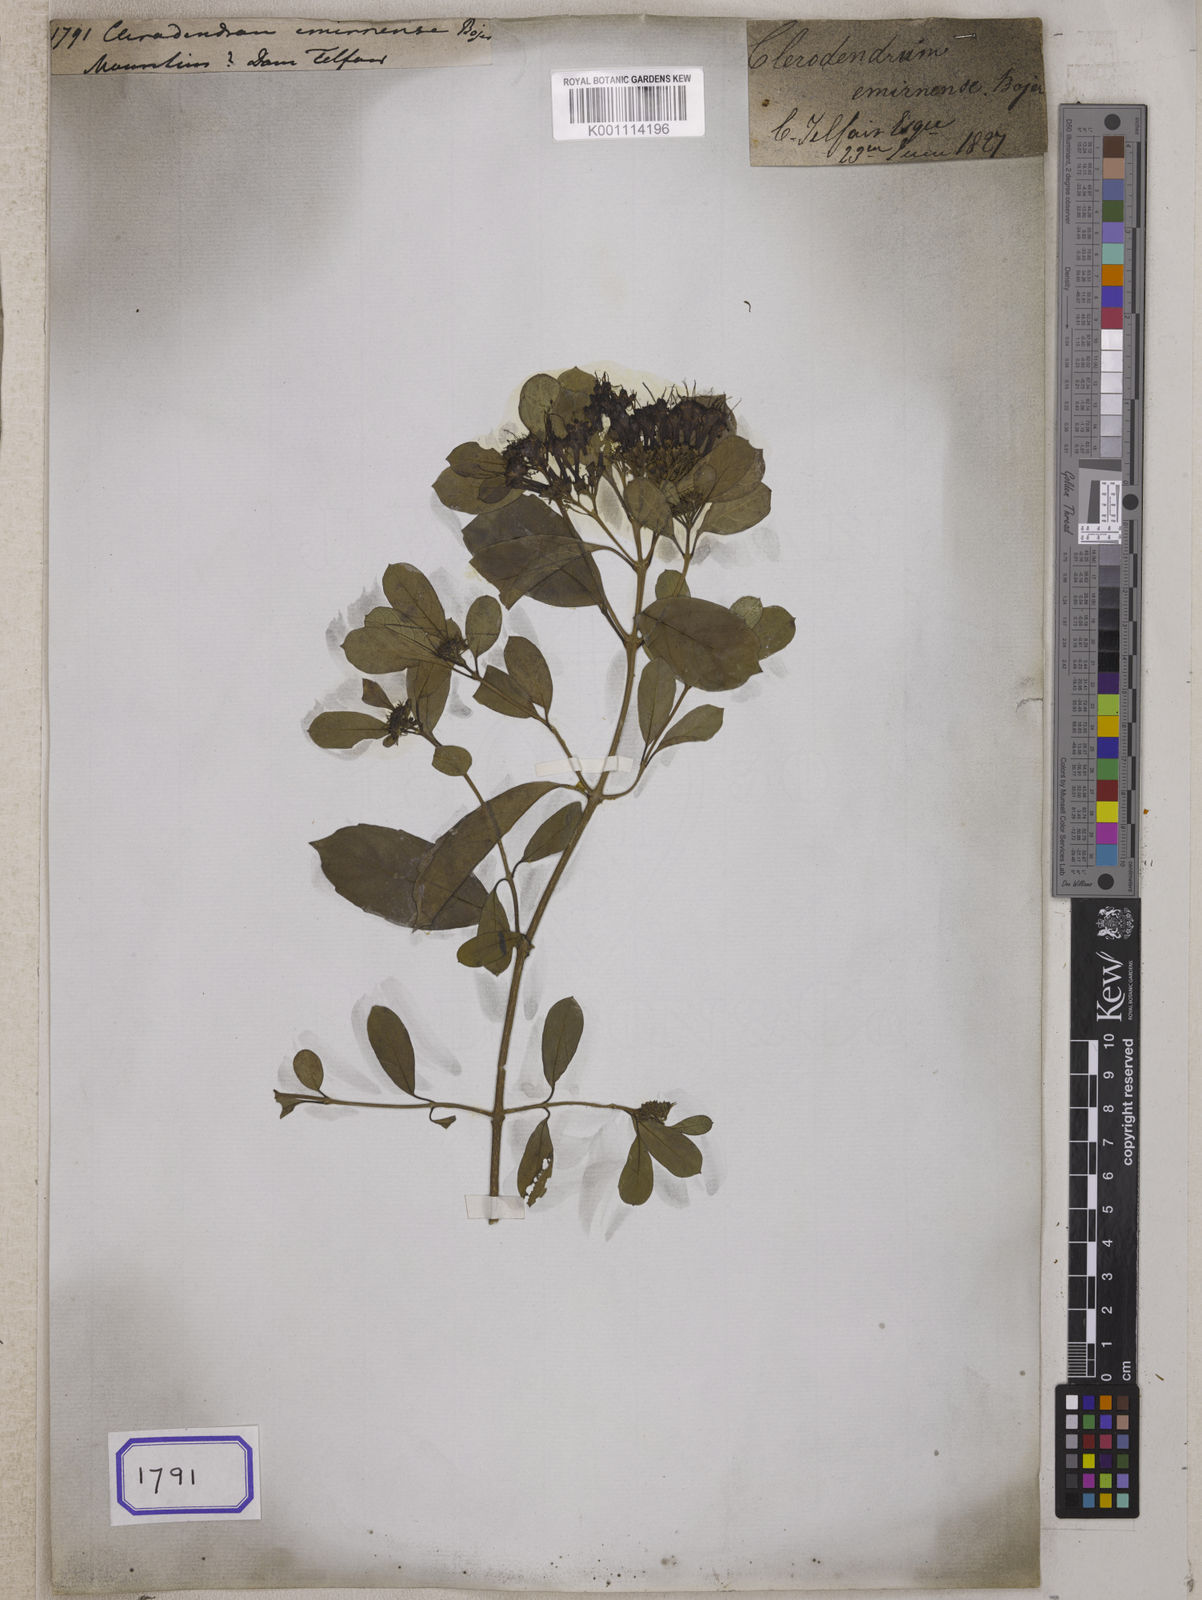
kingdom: Plantae
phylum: Tracheophyta
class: Magnoliopsida
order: Lamiales
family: Lamiaceae
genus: Clerodendrum
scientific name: Clerodendrum
